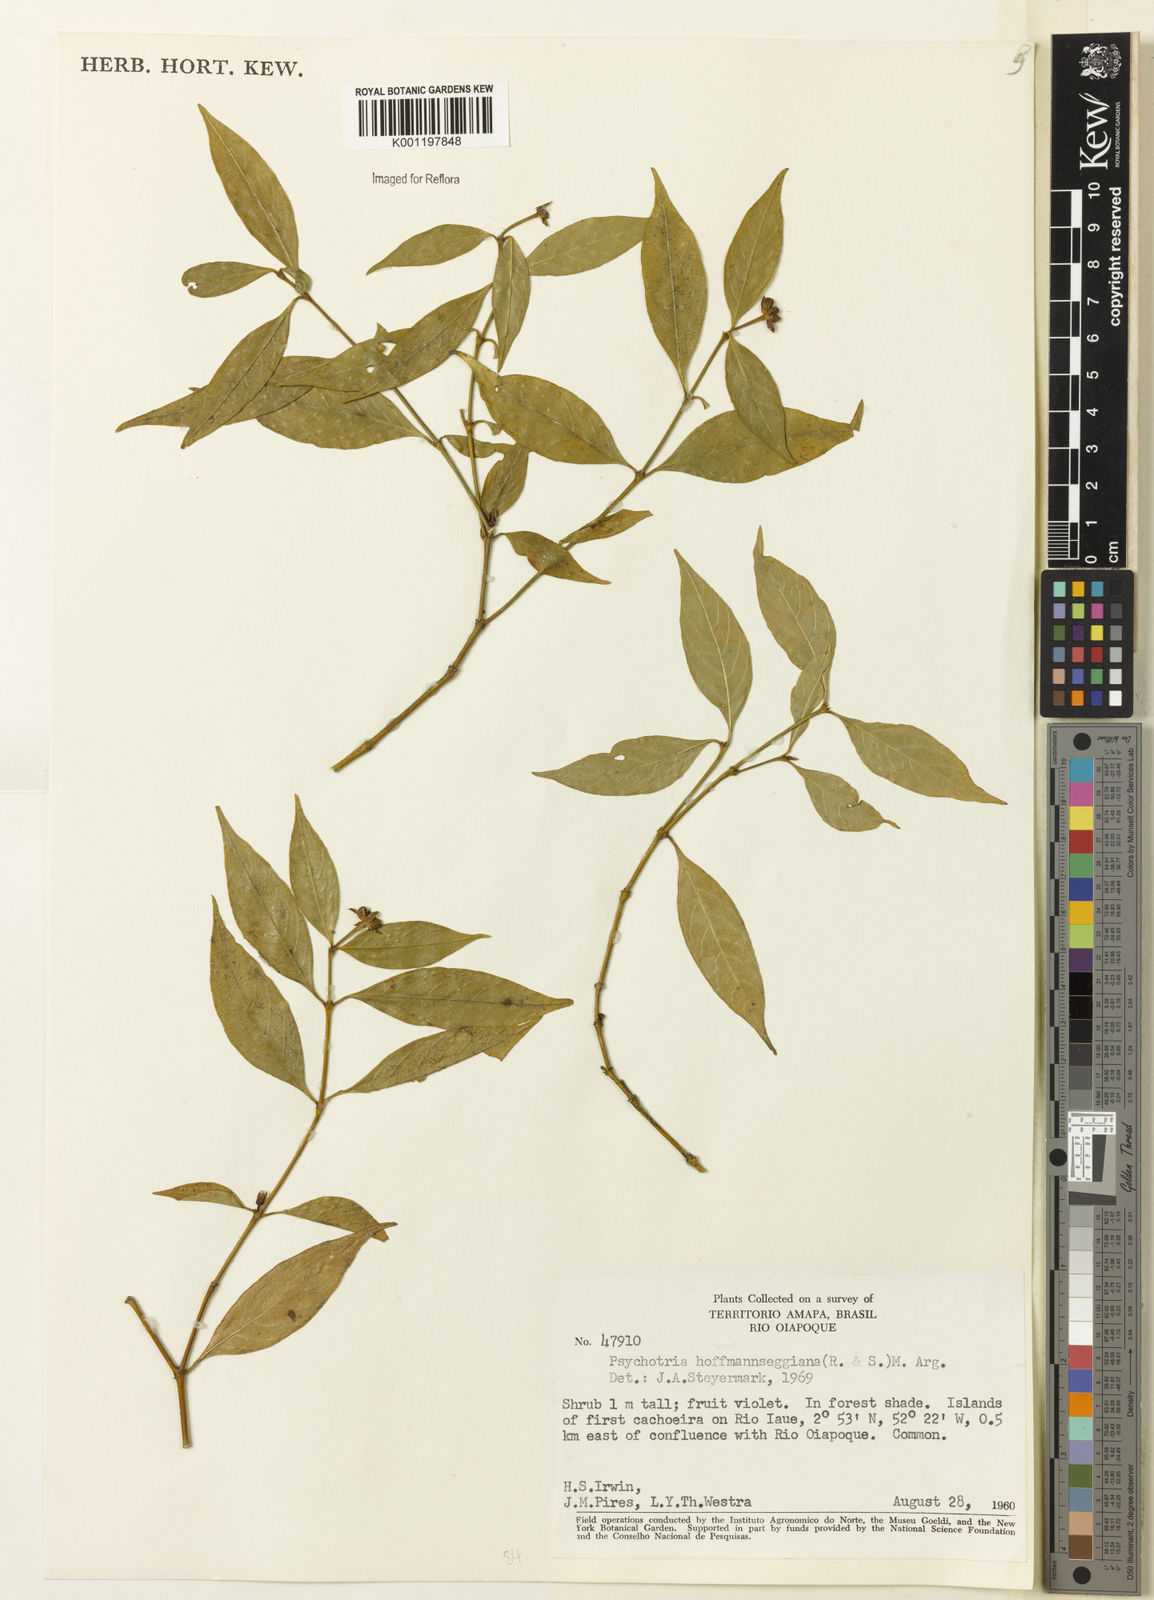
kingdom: Plantae
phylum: Tracheophyta
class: Magnoliopsida
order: Gentianales
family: Rubiaceae
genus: Psychotria
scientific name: Psychotria
